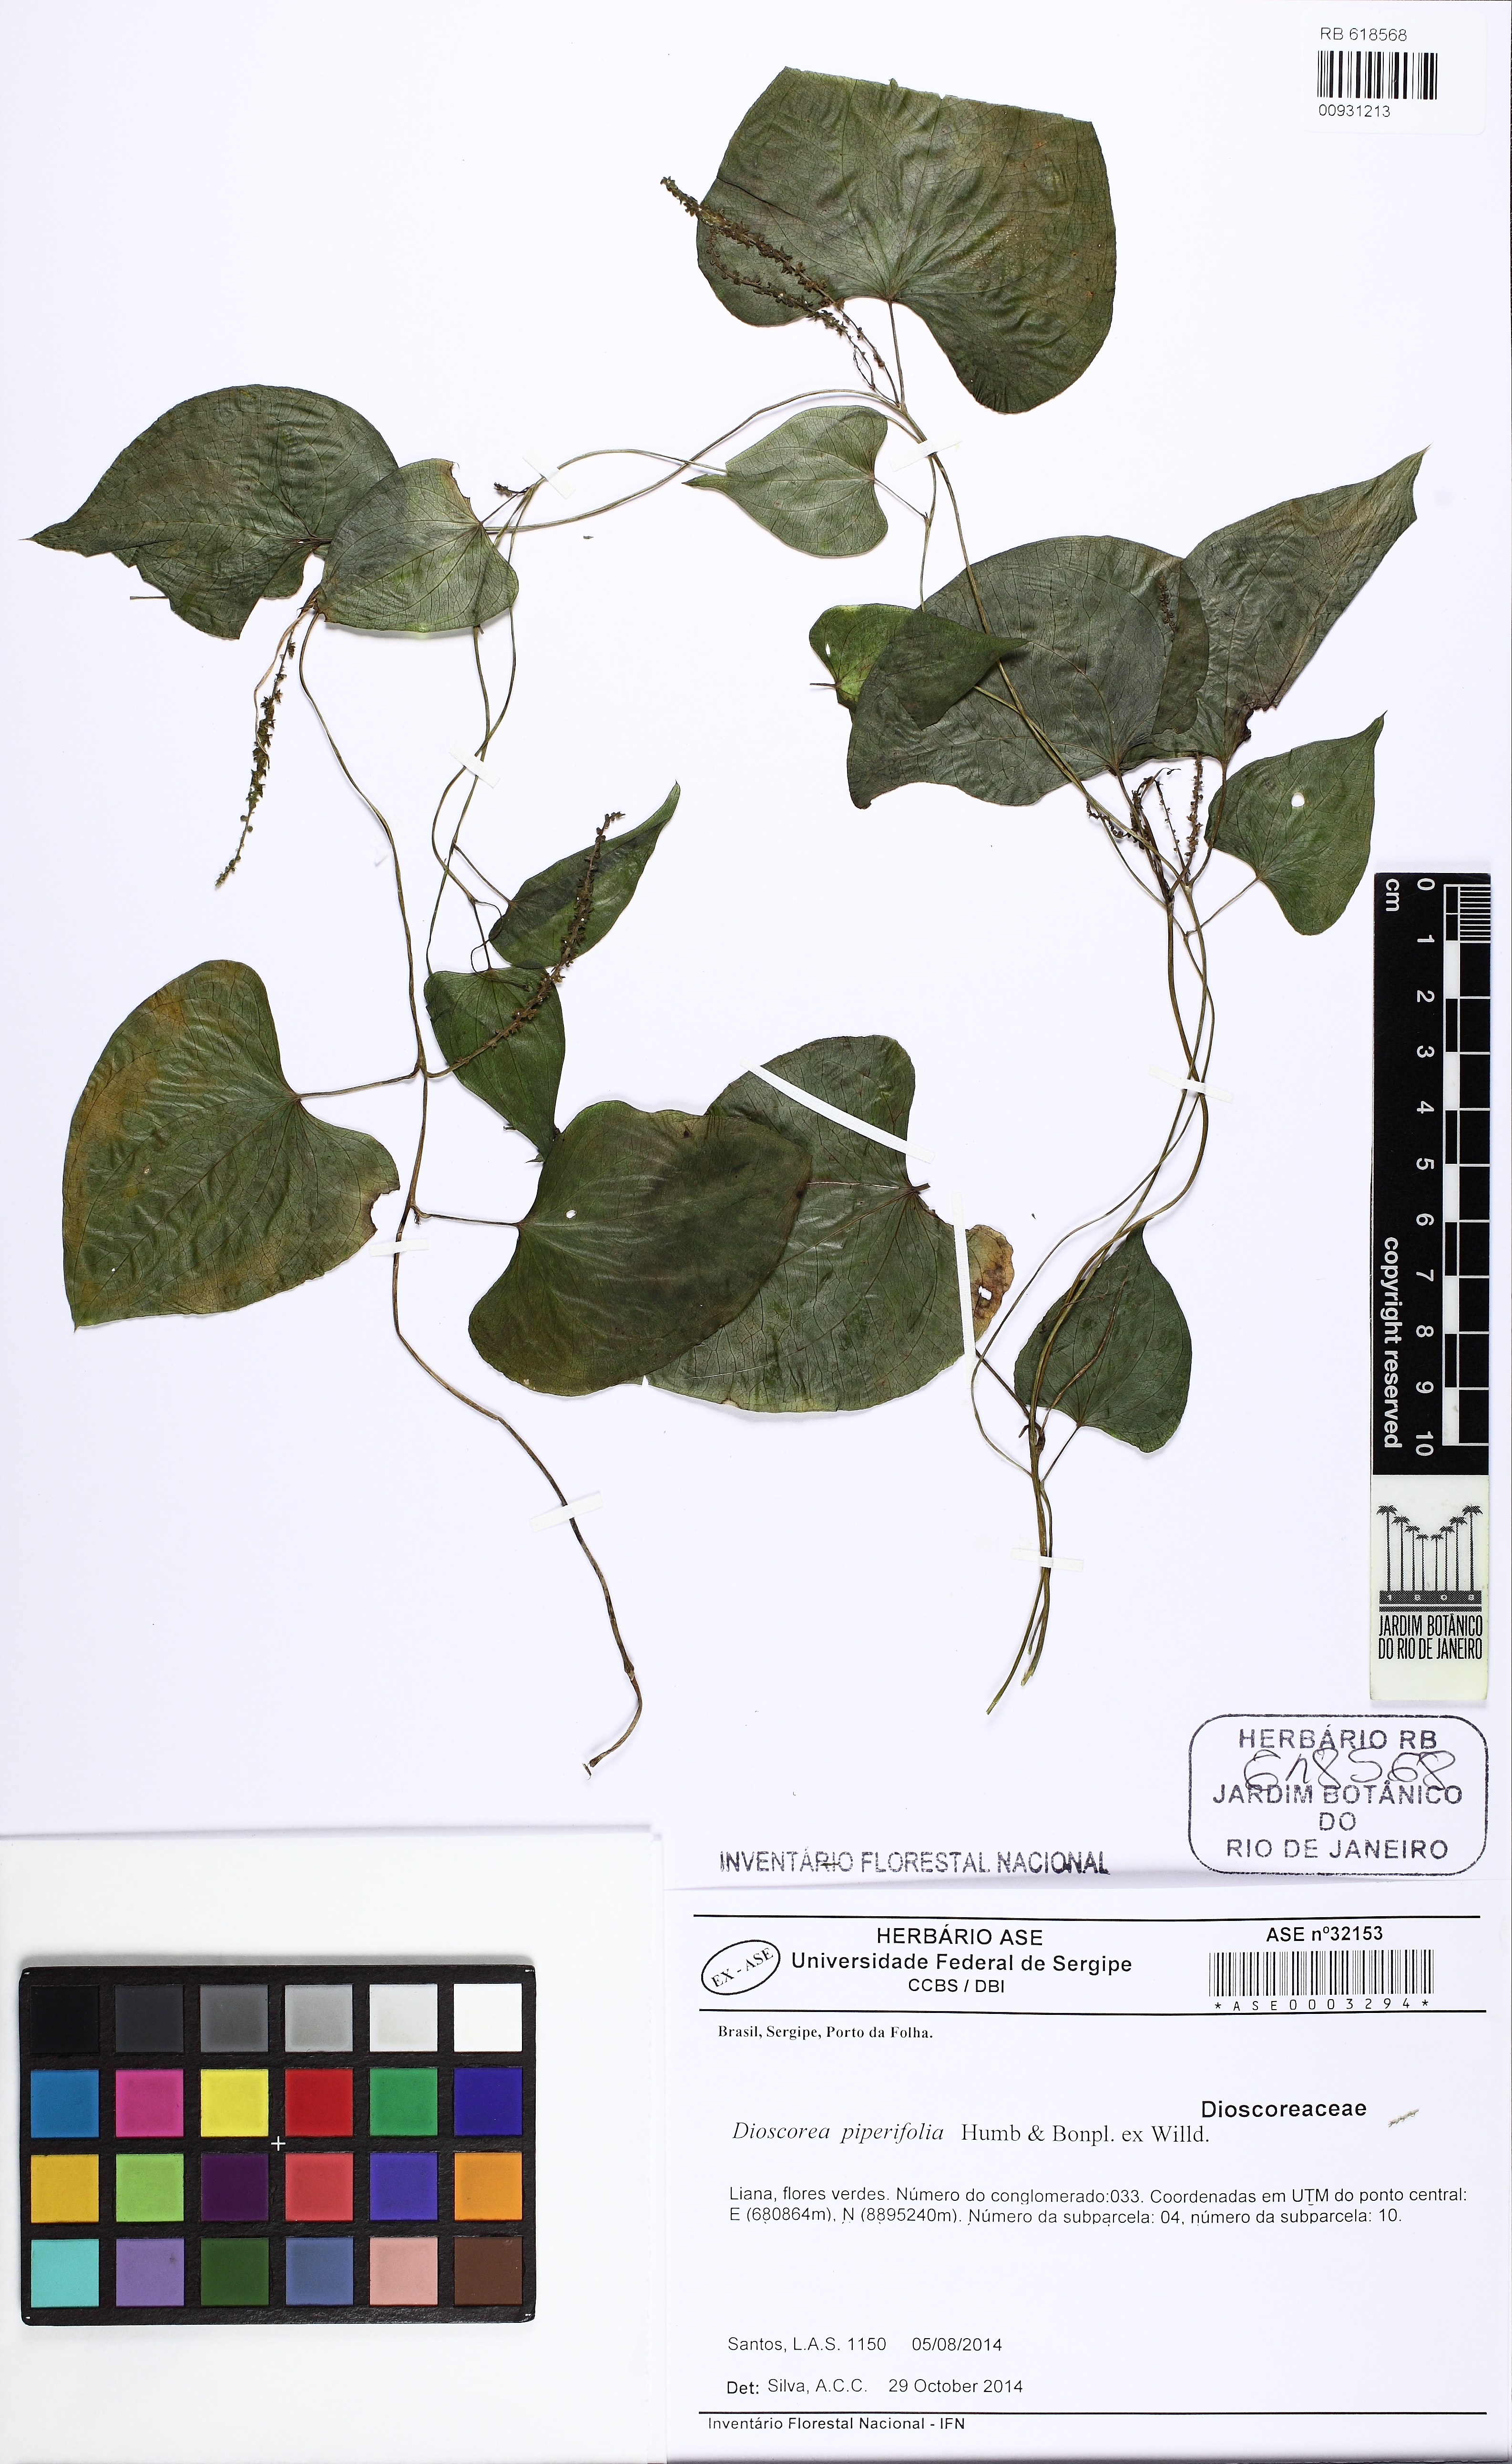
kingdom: Plantae
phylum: Tracheophyta
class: Liliopsida
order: Dioscoreales
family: Dioscoreaceae
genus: Dioscorea
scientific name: Dioscorea piperifolia
